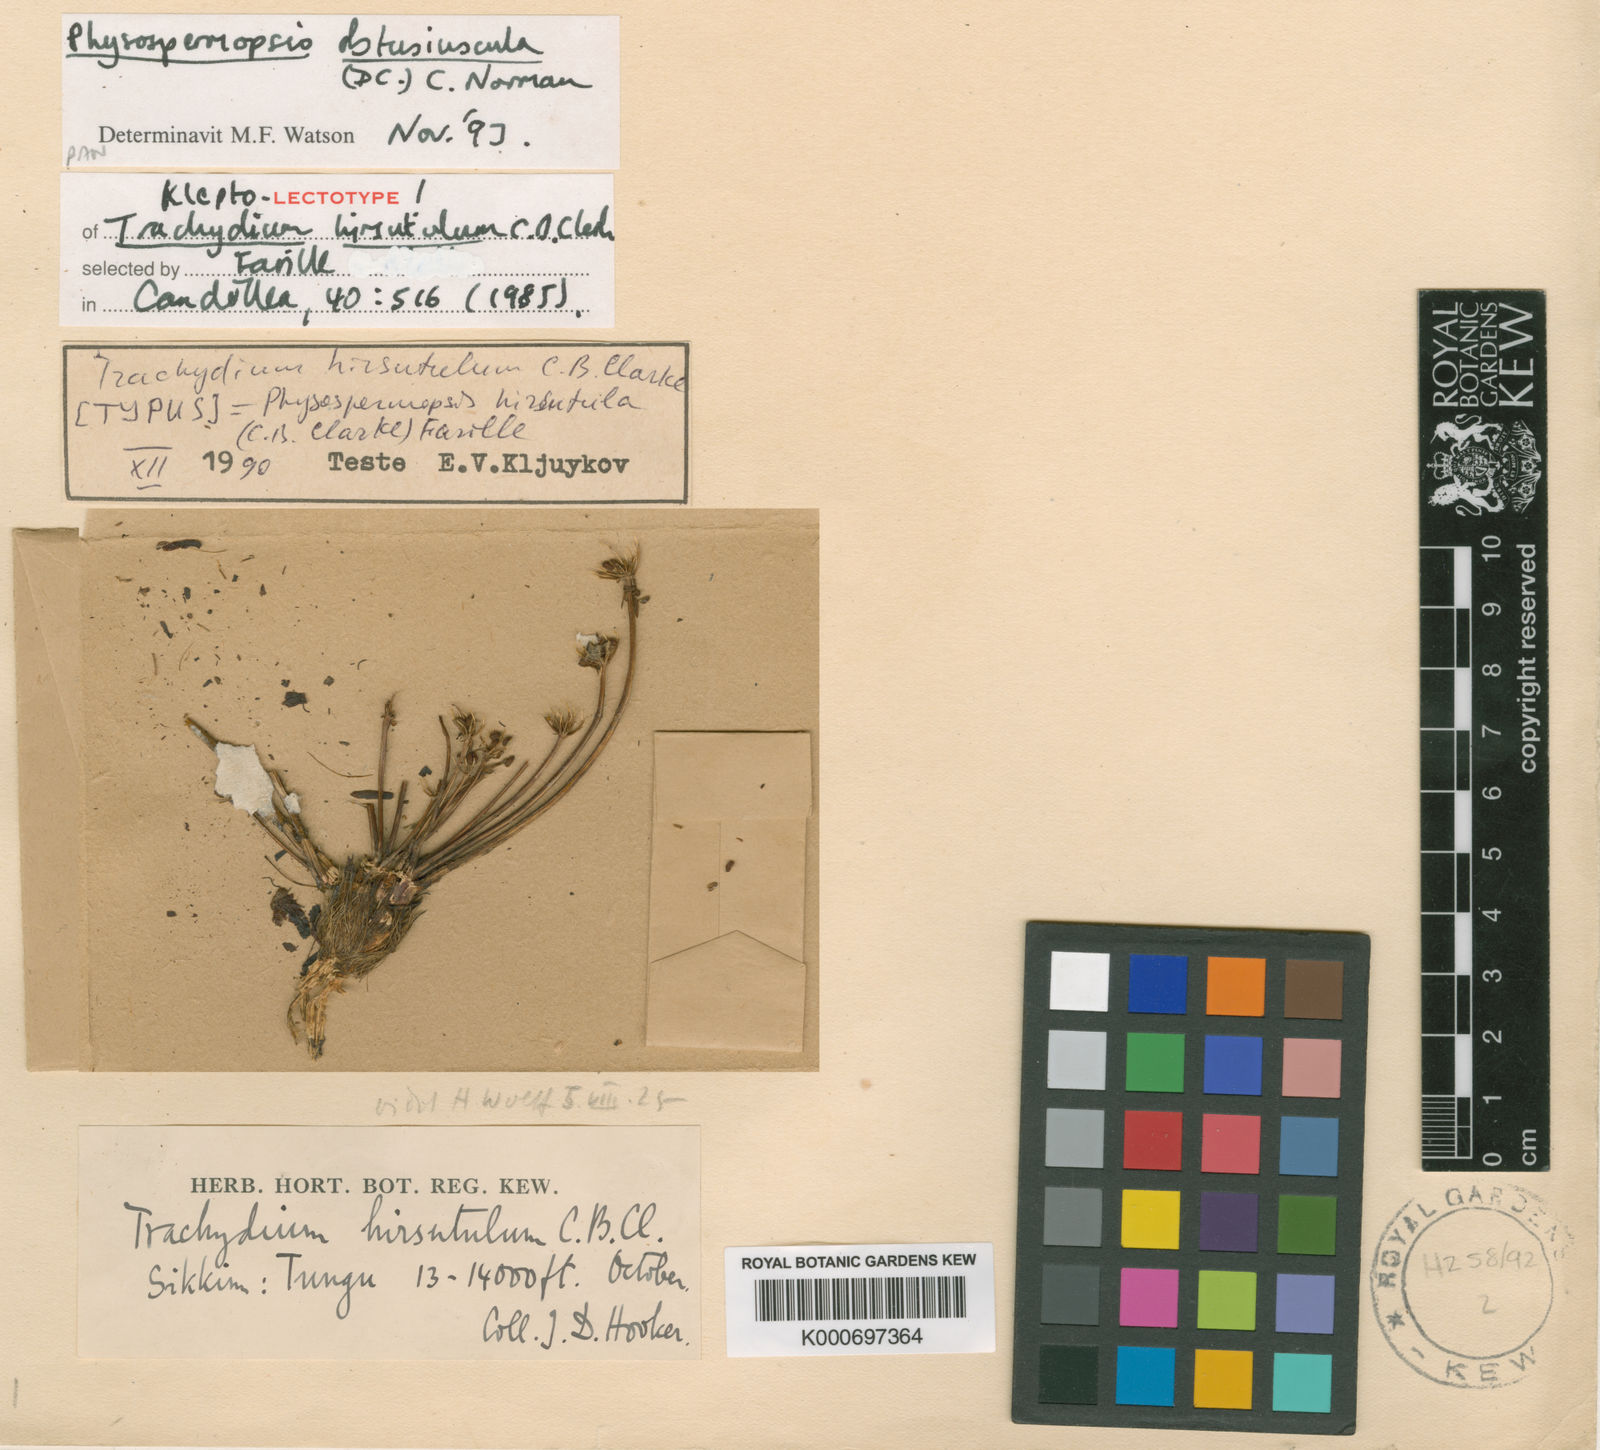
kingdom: Plantae
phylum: Tracheophyta
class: Magnoliopsida
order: Apiales
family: Apiaceae
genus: Physospermopsis
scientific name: Physospermopsis obtusiuscula
